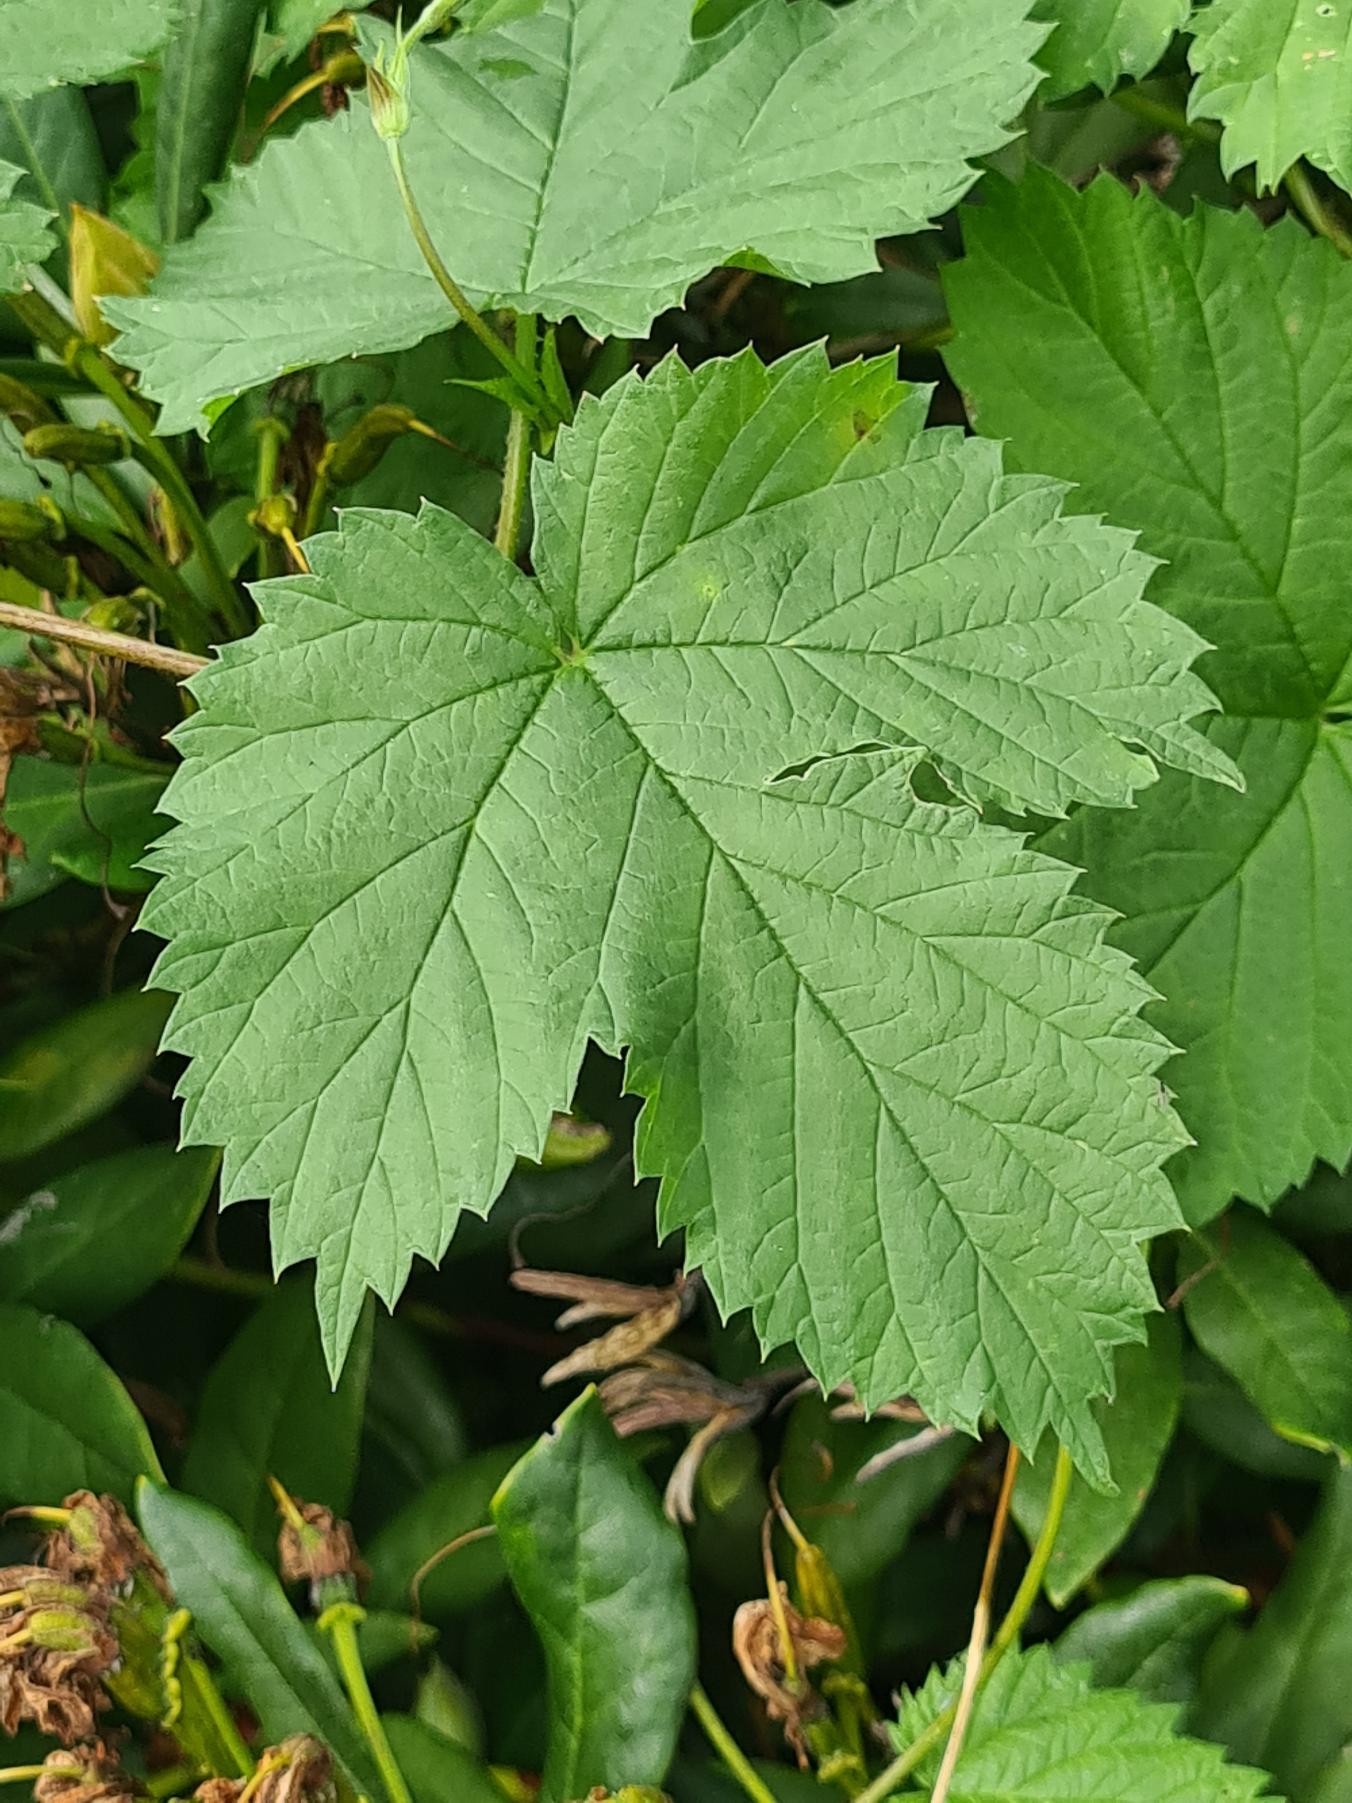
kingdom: Plantae
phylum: Tracheophyta
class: Magnoliopsida
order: Rosales
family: Cannabaceae
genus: Humulus
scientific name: Humulus lupulus
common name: Humle
